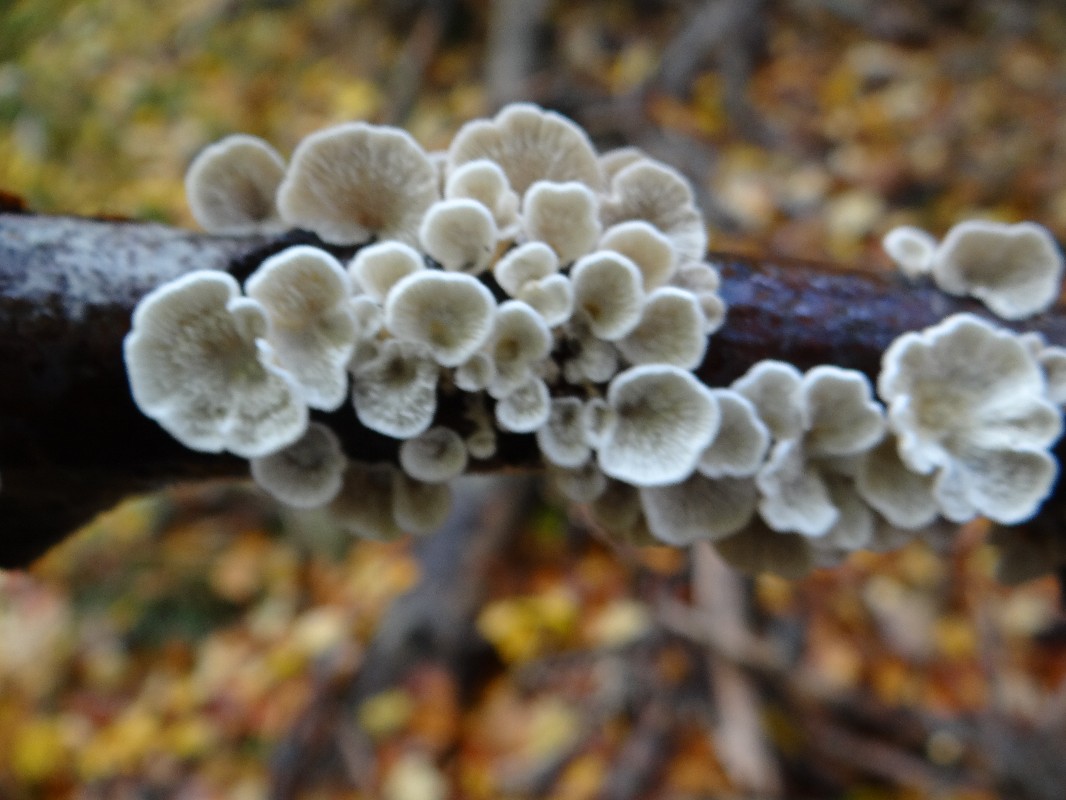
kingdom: Fungi
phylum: Basidiomycota
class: Agaricomycetes
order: Amylocorticiales
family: Amylocorticiaceae
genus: Plicaturopsis
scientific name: Plicaturopsis crispa
